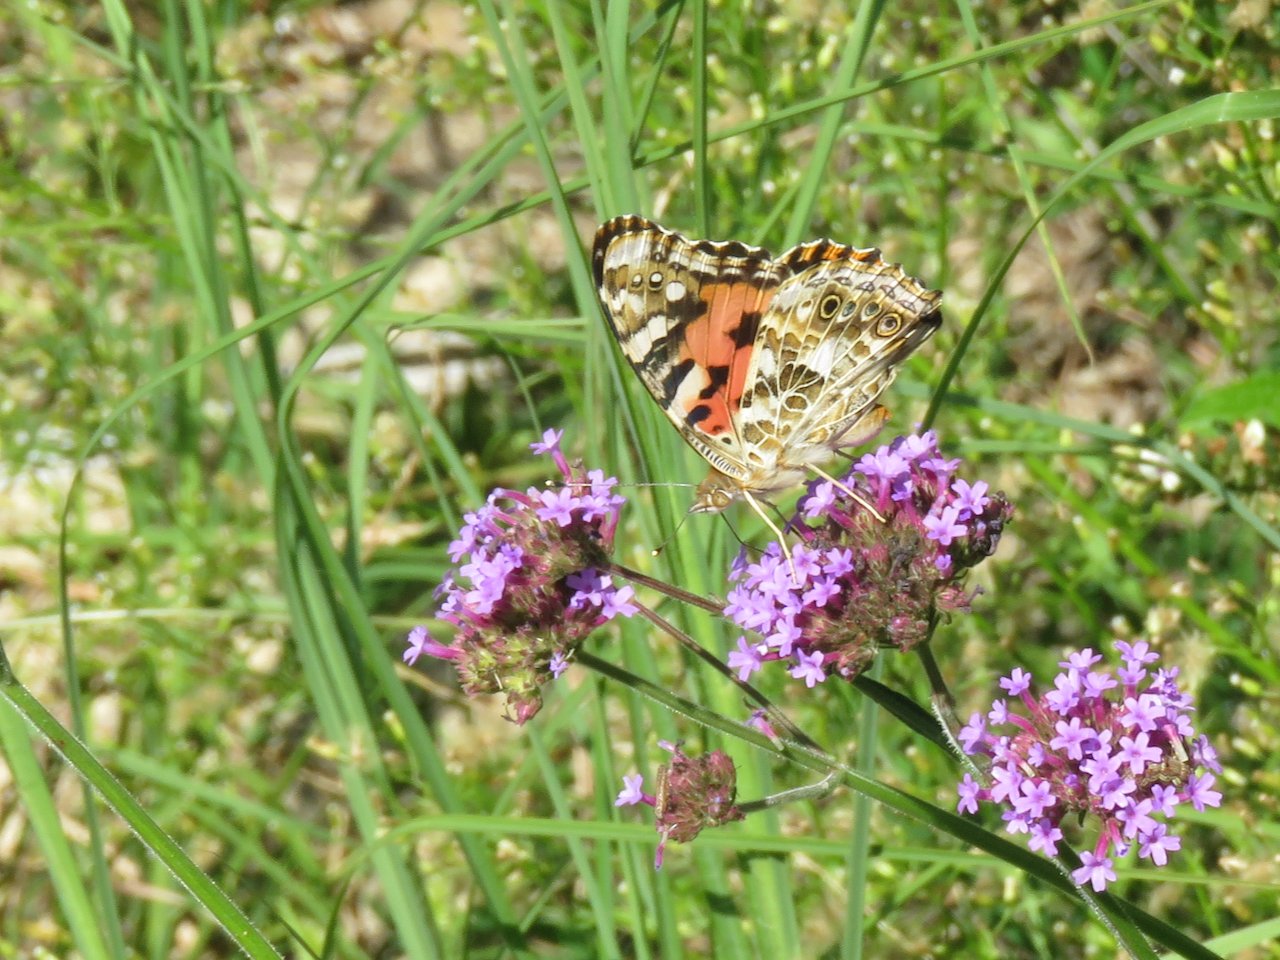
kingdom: Animalia
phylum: Arthropoda
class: Insecta
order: Lepidoptera
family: Nymphalidae
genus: Vanessa
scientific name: Vanessa cardui
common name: Painted Lady
